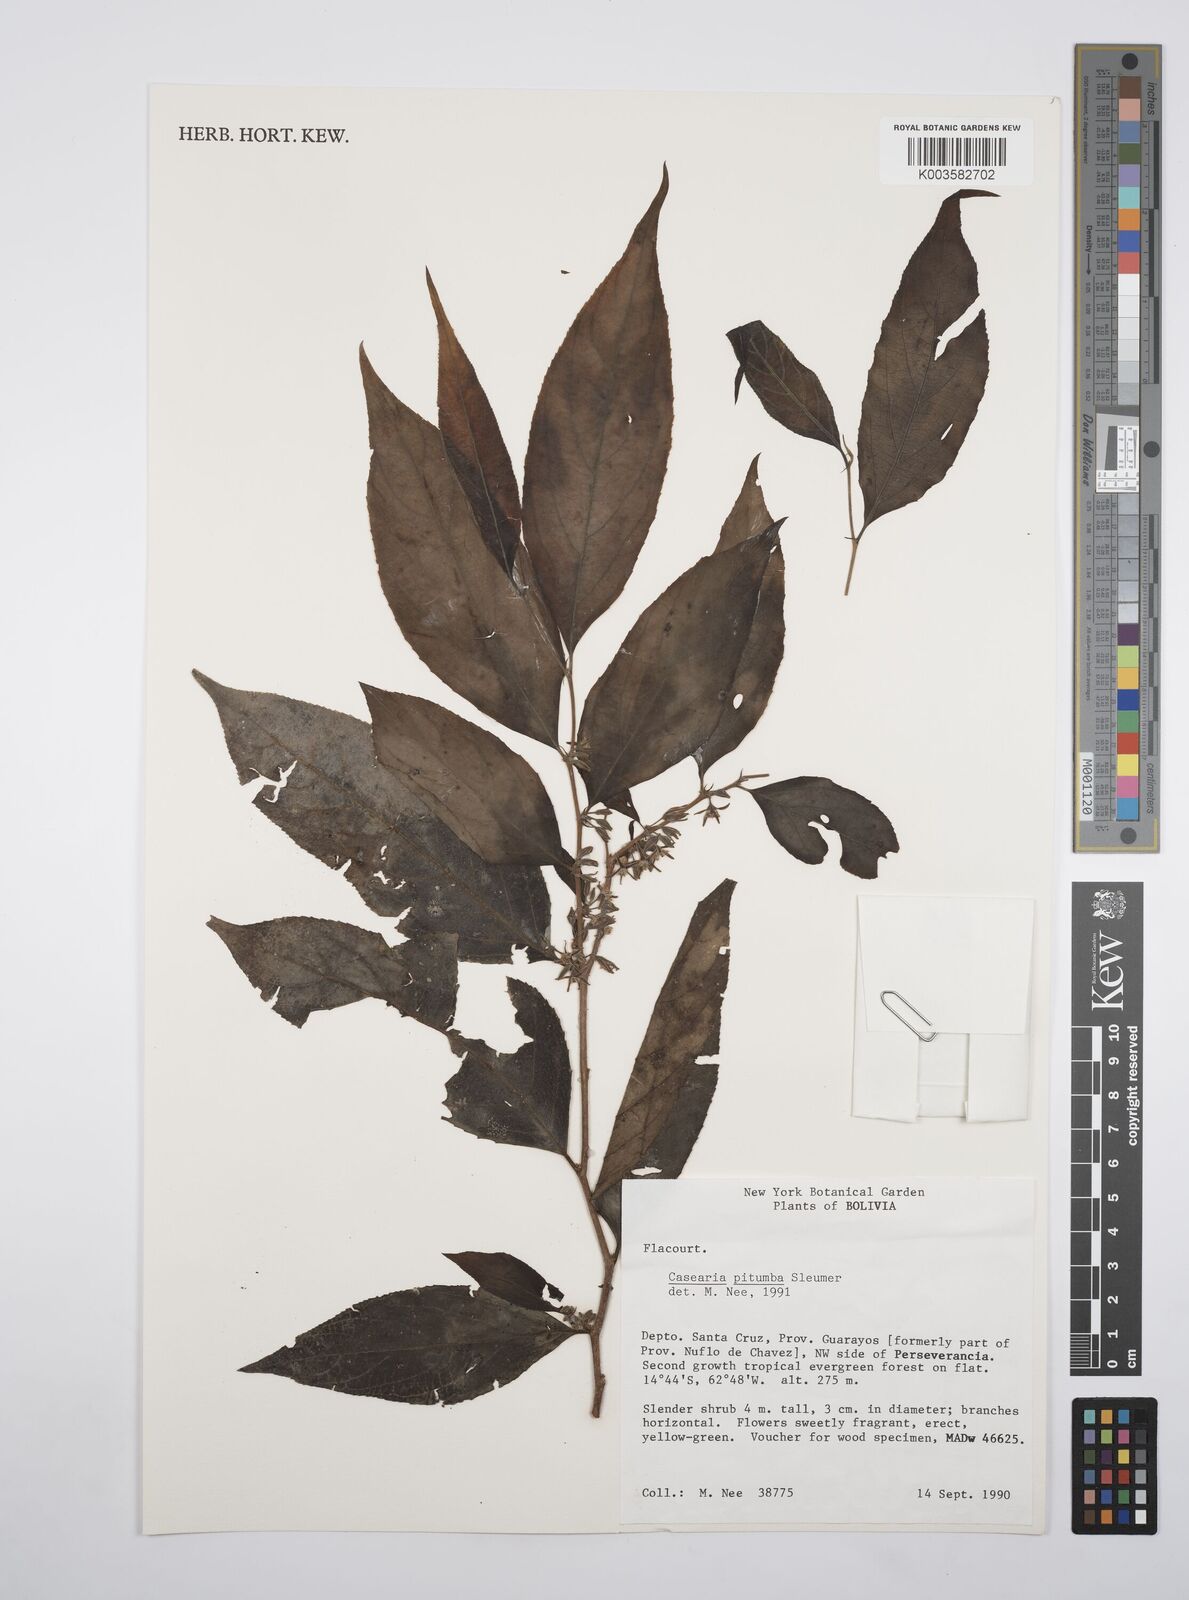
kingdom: Plantae
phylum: Tracheophyta
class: Magnoliopsida
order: Malpighiales
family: Salicaceae
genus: Casearia
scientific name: Casearia pitumba
